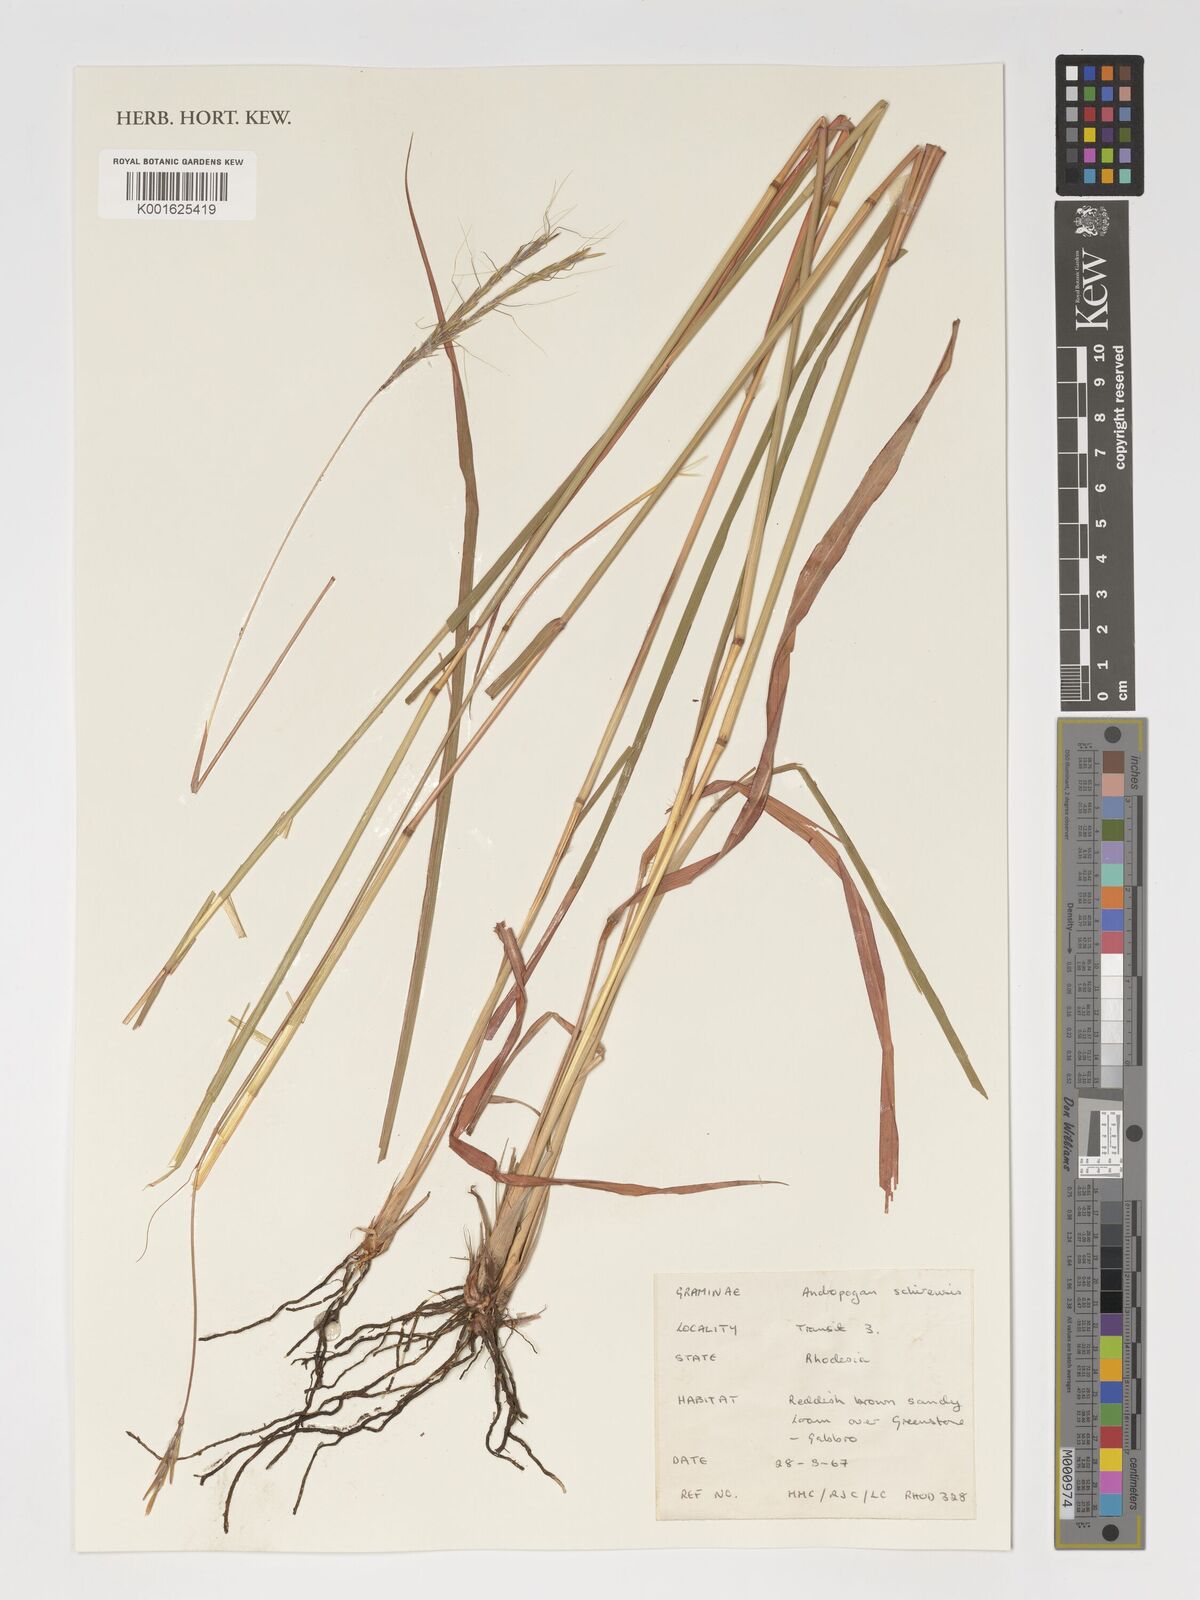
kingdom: Plantae
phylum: Tracheophyta
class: Liliopsida
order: Poales
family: Poaceae
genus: Andropogon
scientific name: Andropogon schirensis
